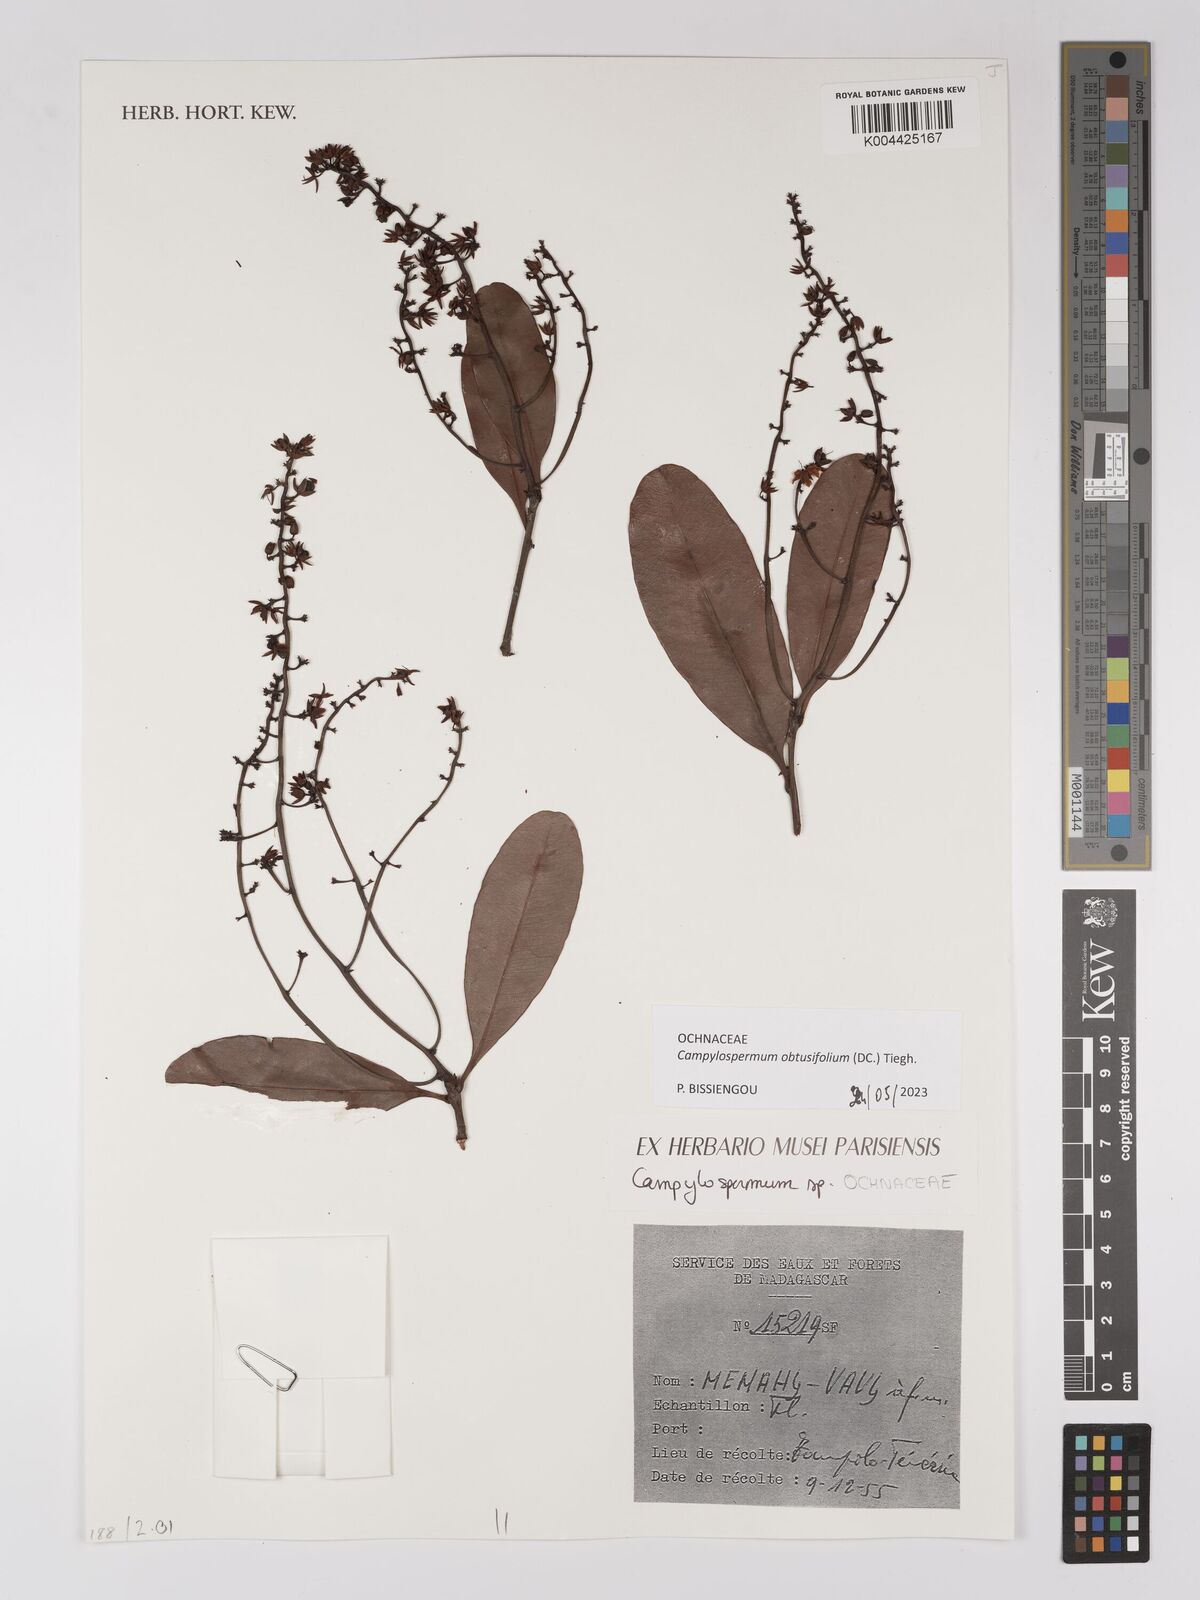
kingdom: Plantae
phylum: Tracheophyta
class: Magnoliopsida
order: Malpighiales
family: Ochnaceae
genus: Campylospermum
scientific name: Campylospermum
